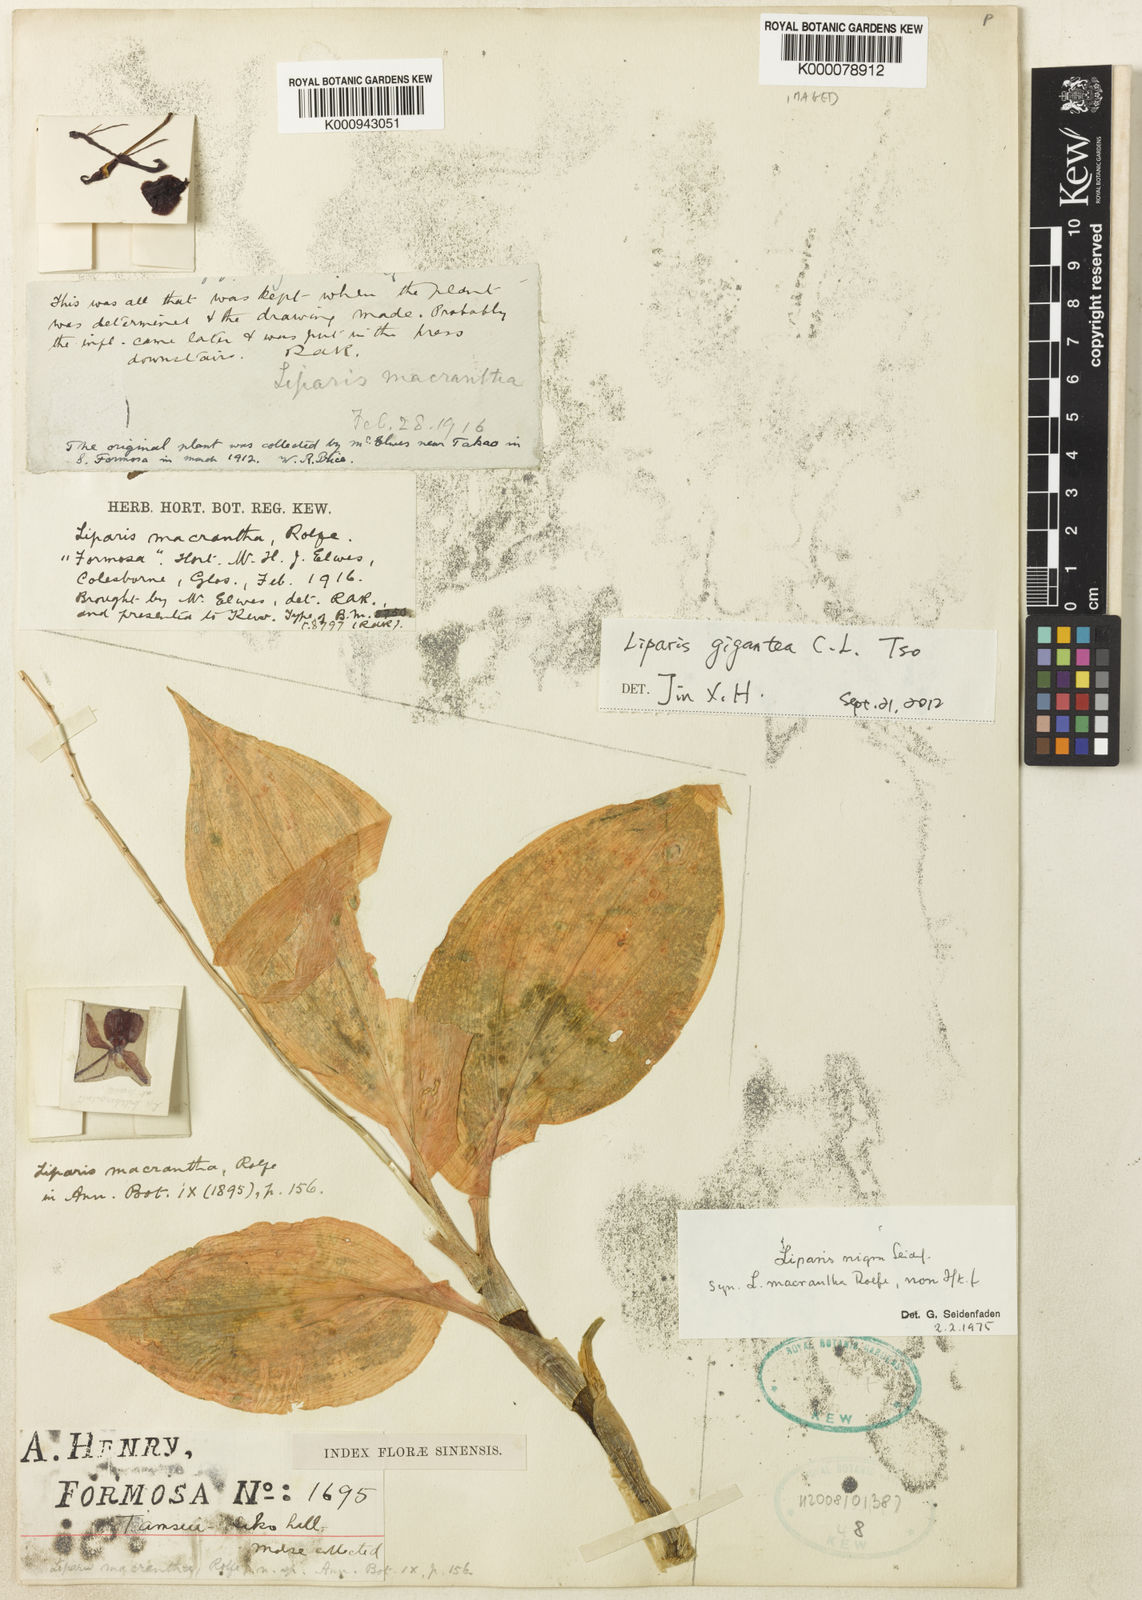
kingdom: Plantae
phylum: Tracheophyta
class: Liliopsida
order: Asparagales
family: Orchidaceae
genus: Liparis
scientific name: Liparis gigantea
